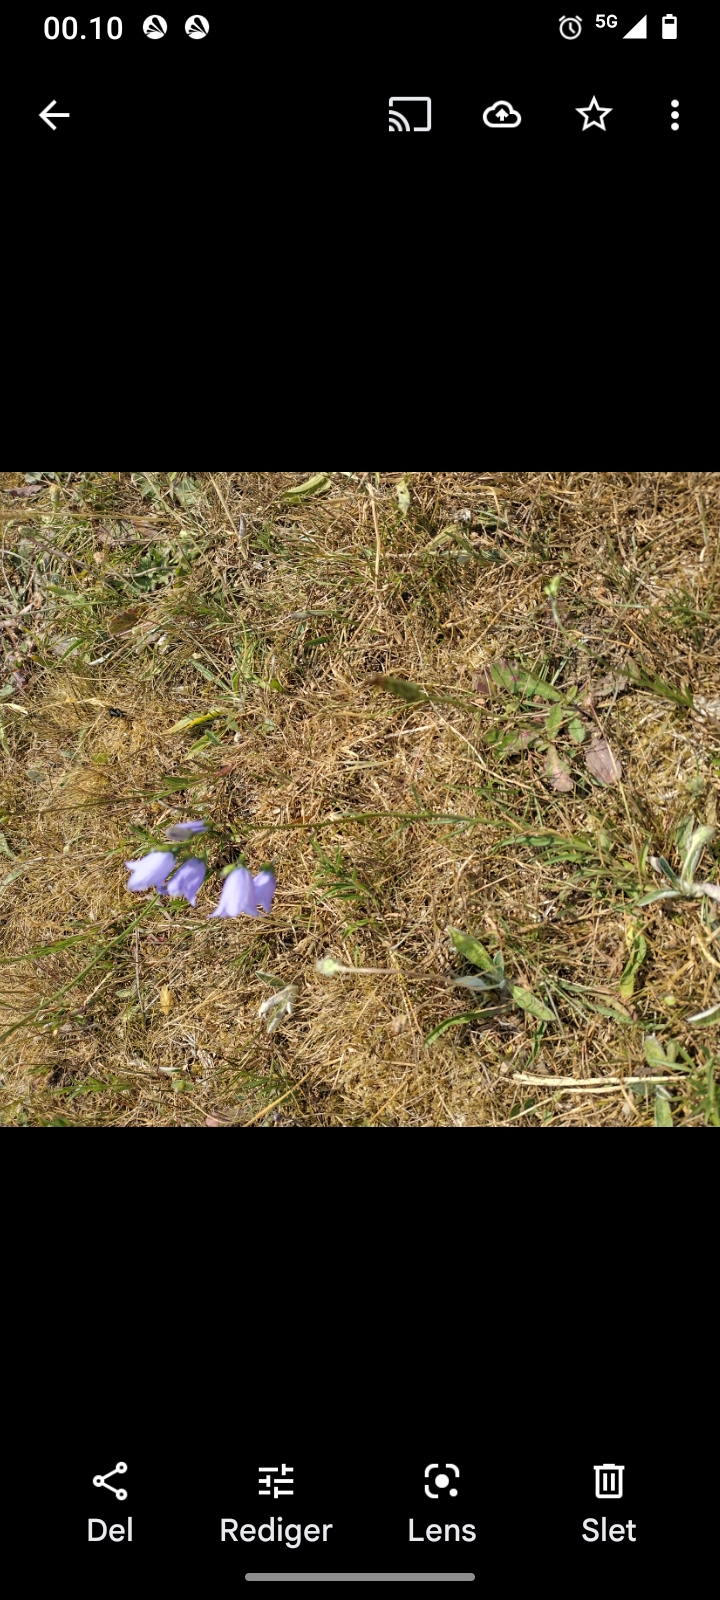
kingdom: Plantae
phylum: Tracheophyta
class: Magnoliopsida
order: Asterales
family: Campanulaceae
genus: Campanula
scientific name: Campanula rotundifolia
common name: Liden klokke
